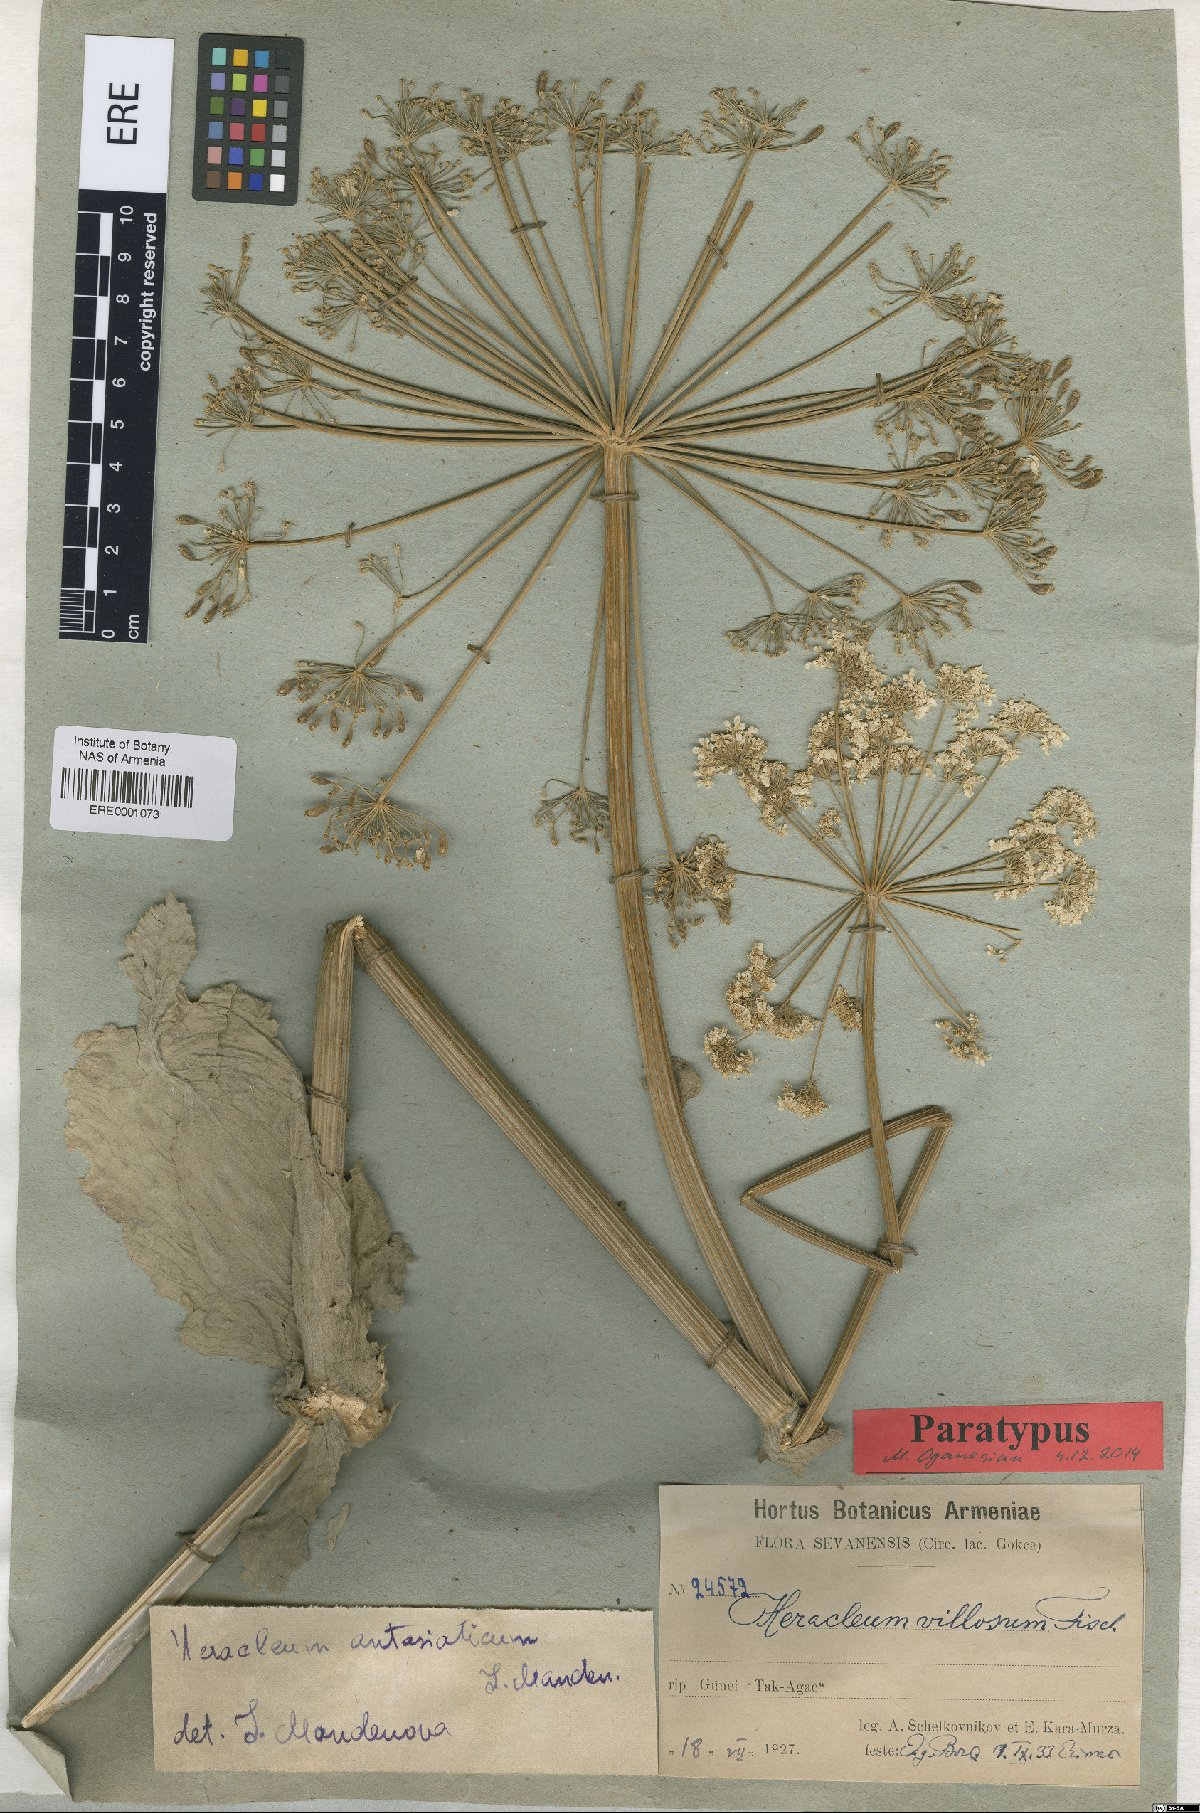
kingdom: Plantae
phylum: Tracheophyta
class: Magnoliopsida
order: Apiales
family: Apiaceae
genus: Heracleum
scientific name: Heracleum antasiaticum
